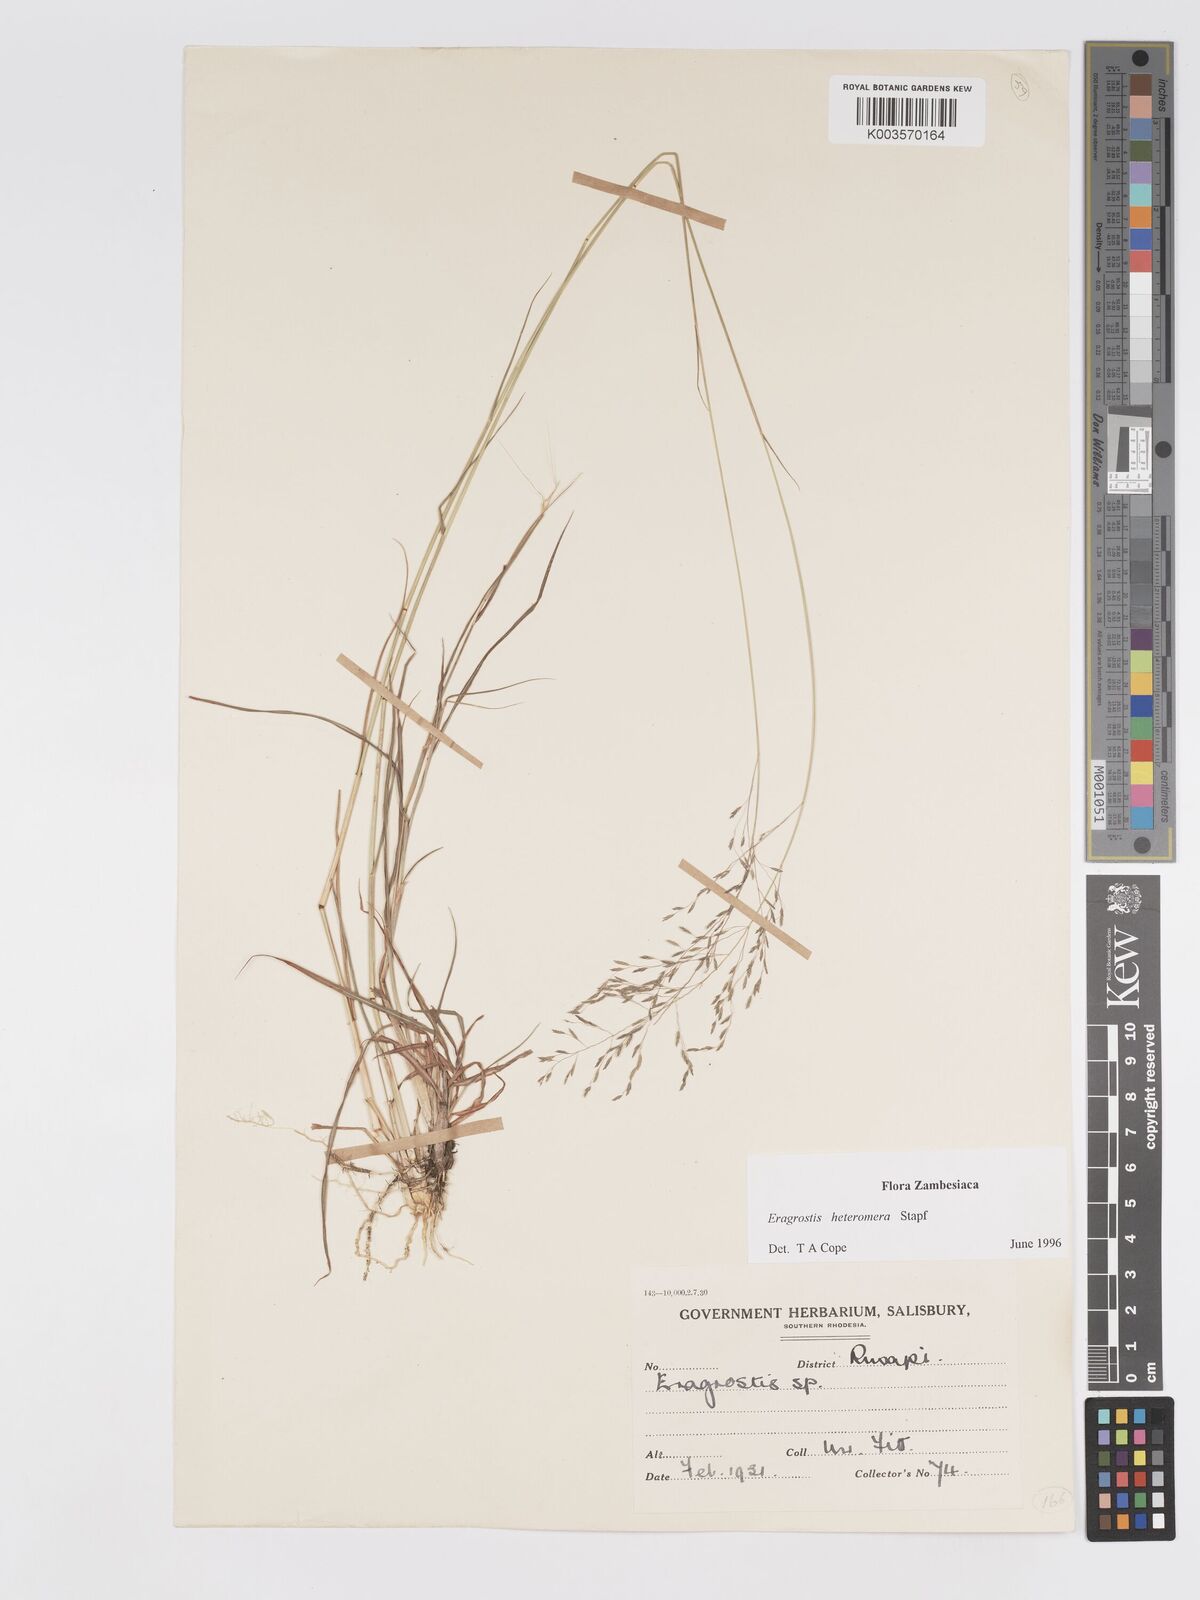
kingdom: Plantae
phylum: Tracheophyta
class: Liliopsida
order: Poales
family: Poaceae
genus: Eragrostis
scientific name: Eragrostis heteromera
